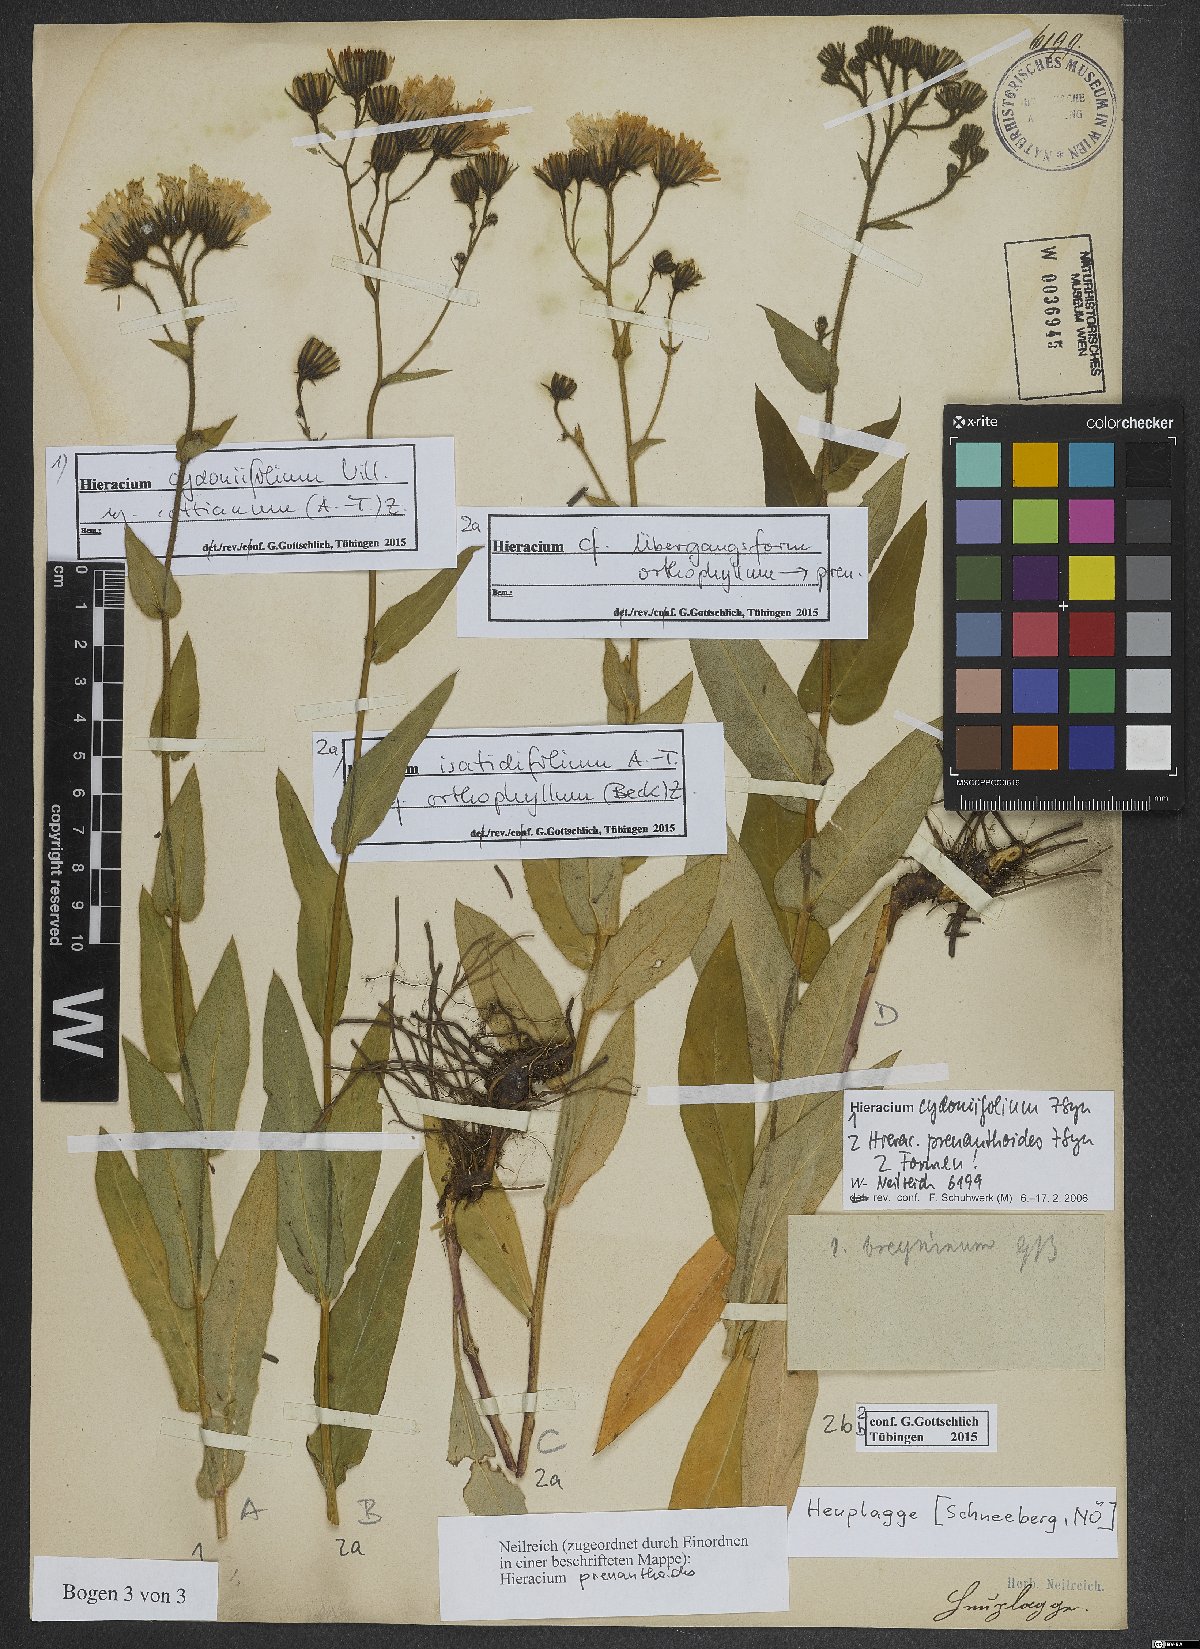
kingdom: Plantae
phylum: Tracheophyta
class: Magnoliopsida
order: Asterales
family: Asteraceae
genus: Hieracium
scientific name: Hieracium cydoniifolium
